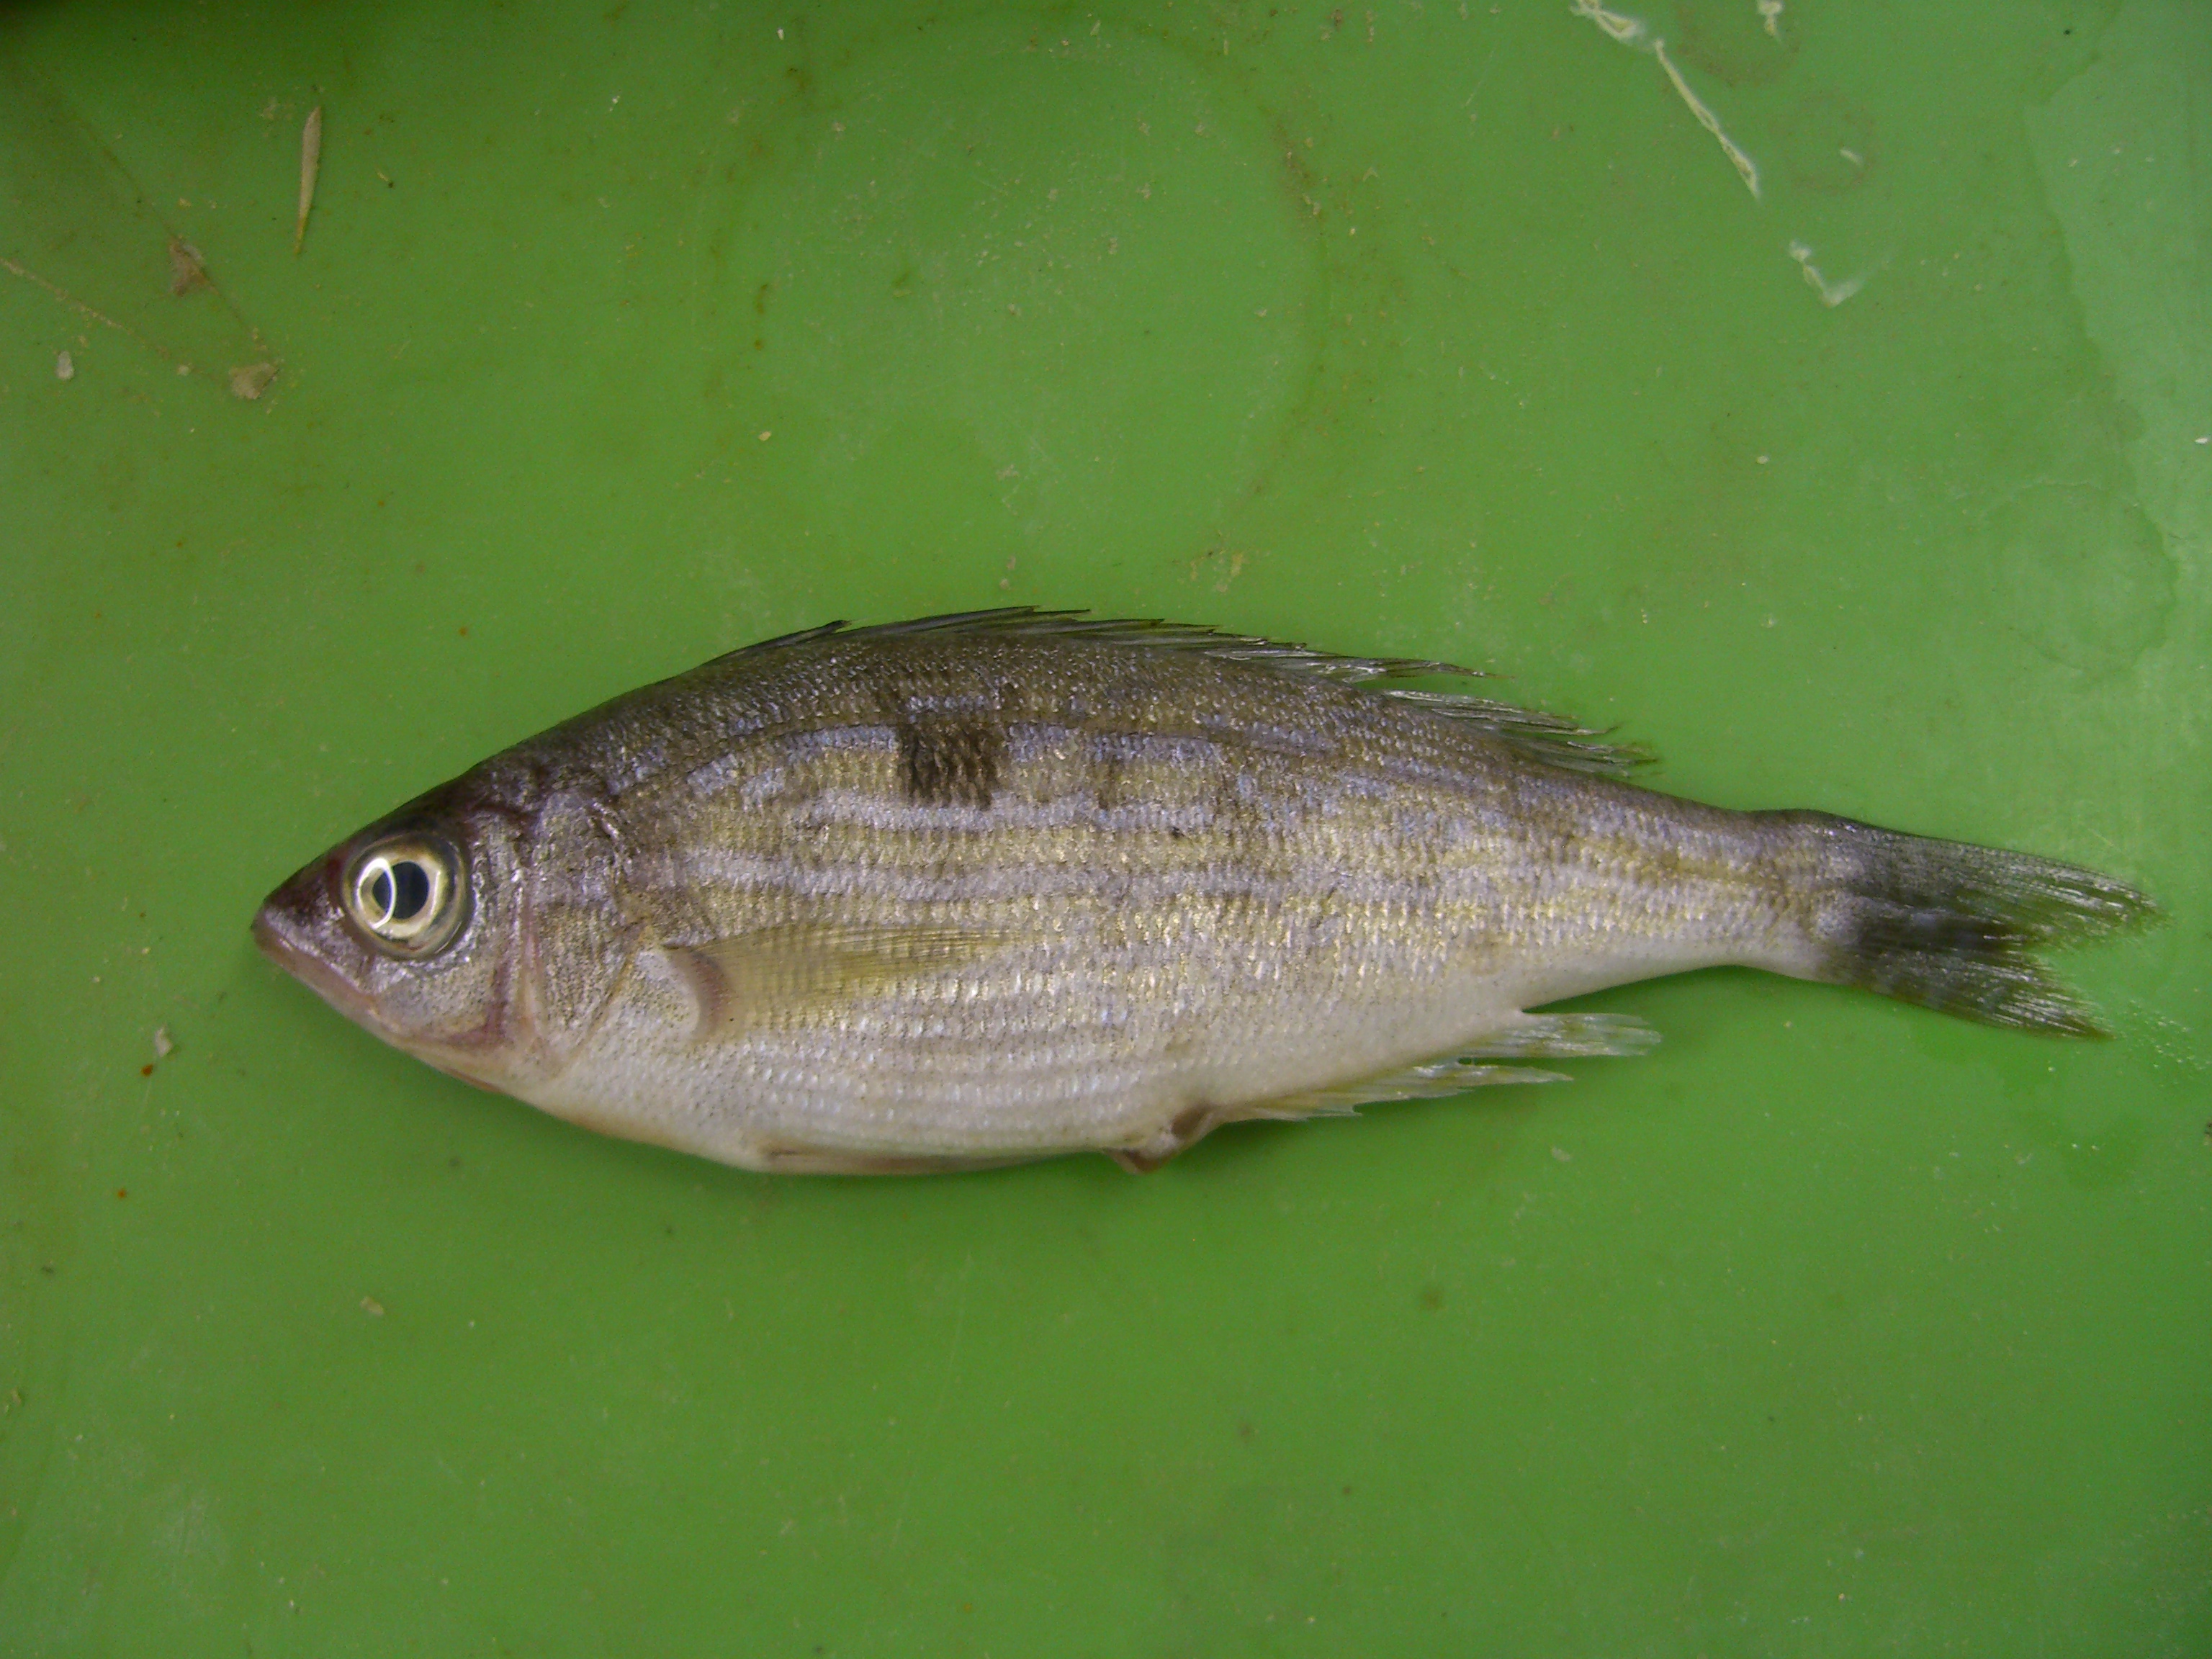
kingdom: Animalia
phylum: Chordata
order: Perciformes
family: Sparidae
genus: Spicara
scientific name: Spicara maena
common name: Blotched picarel
